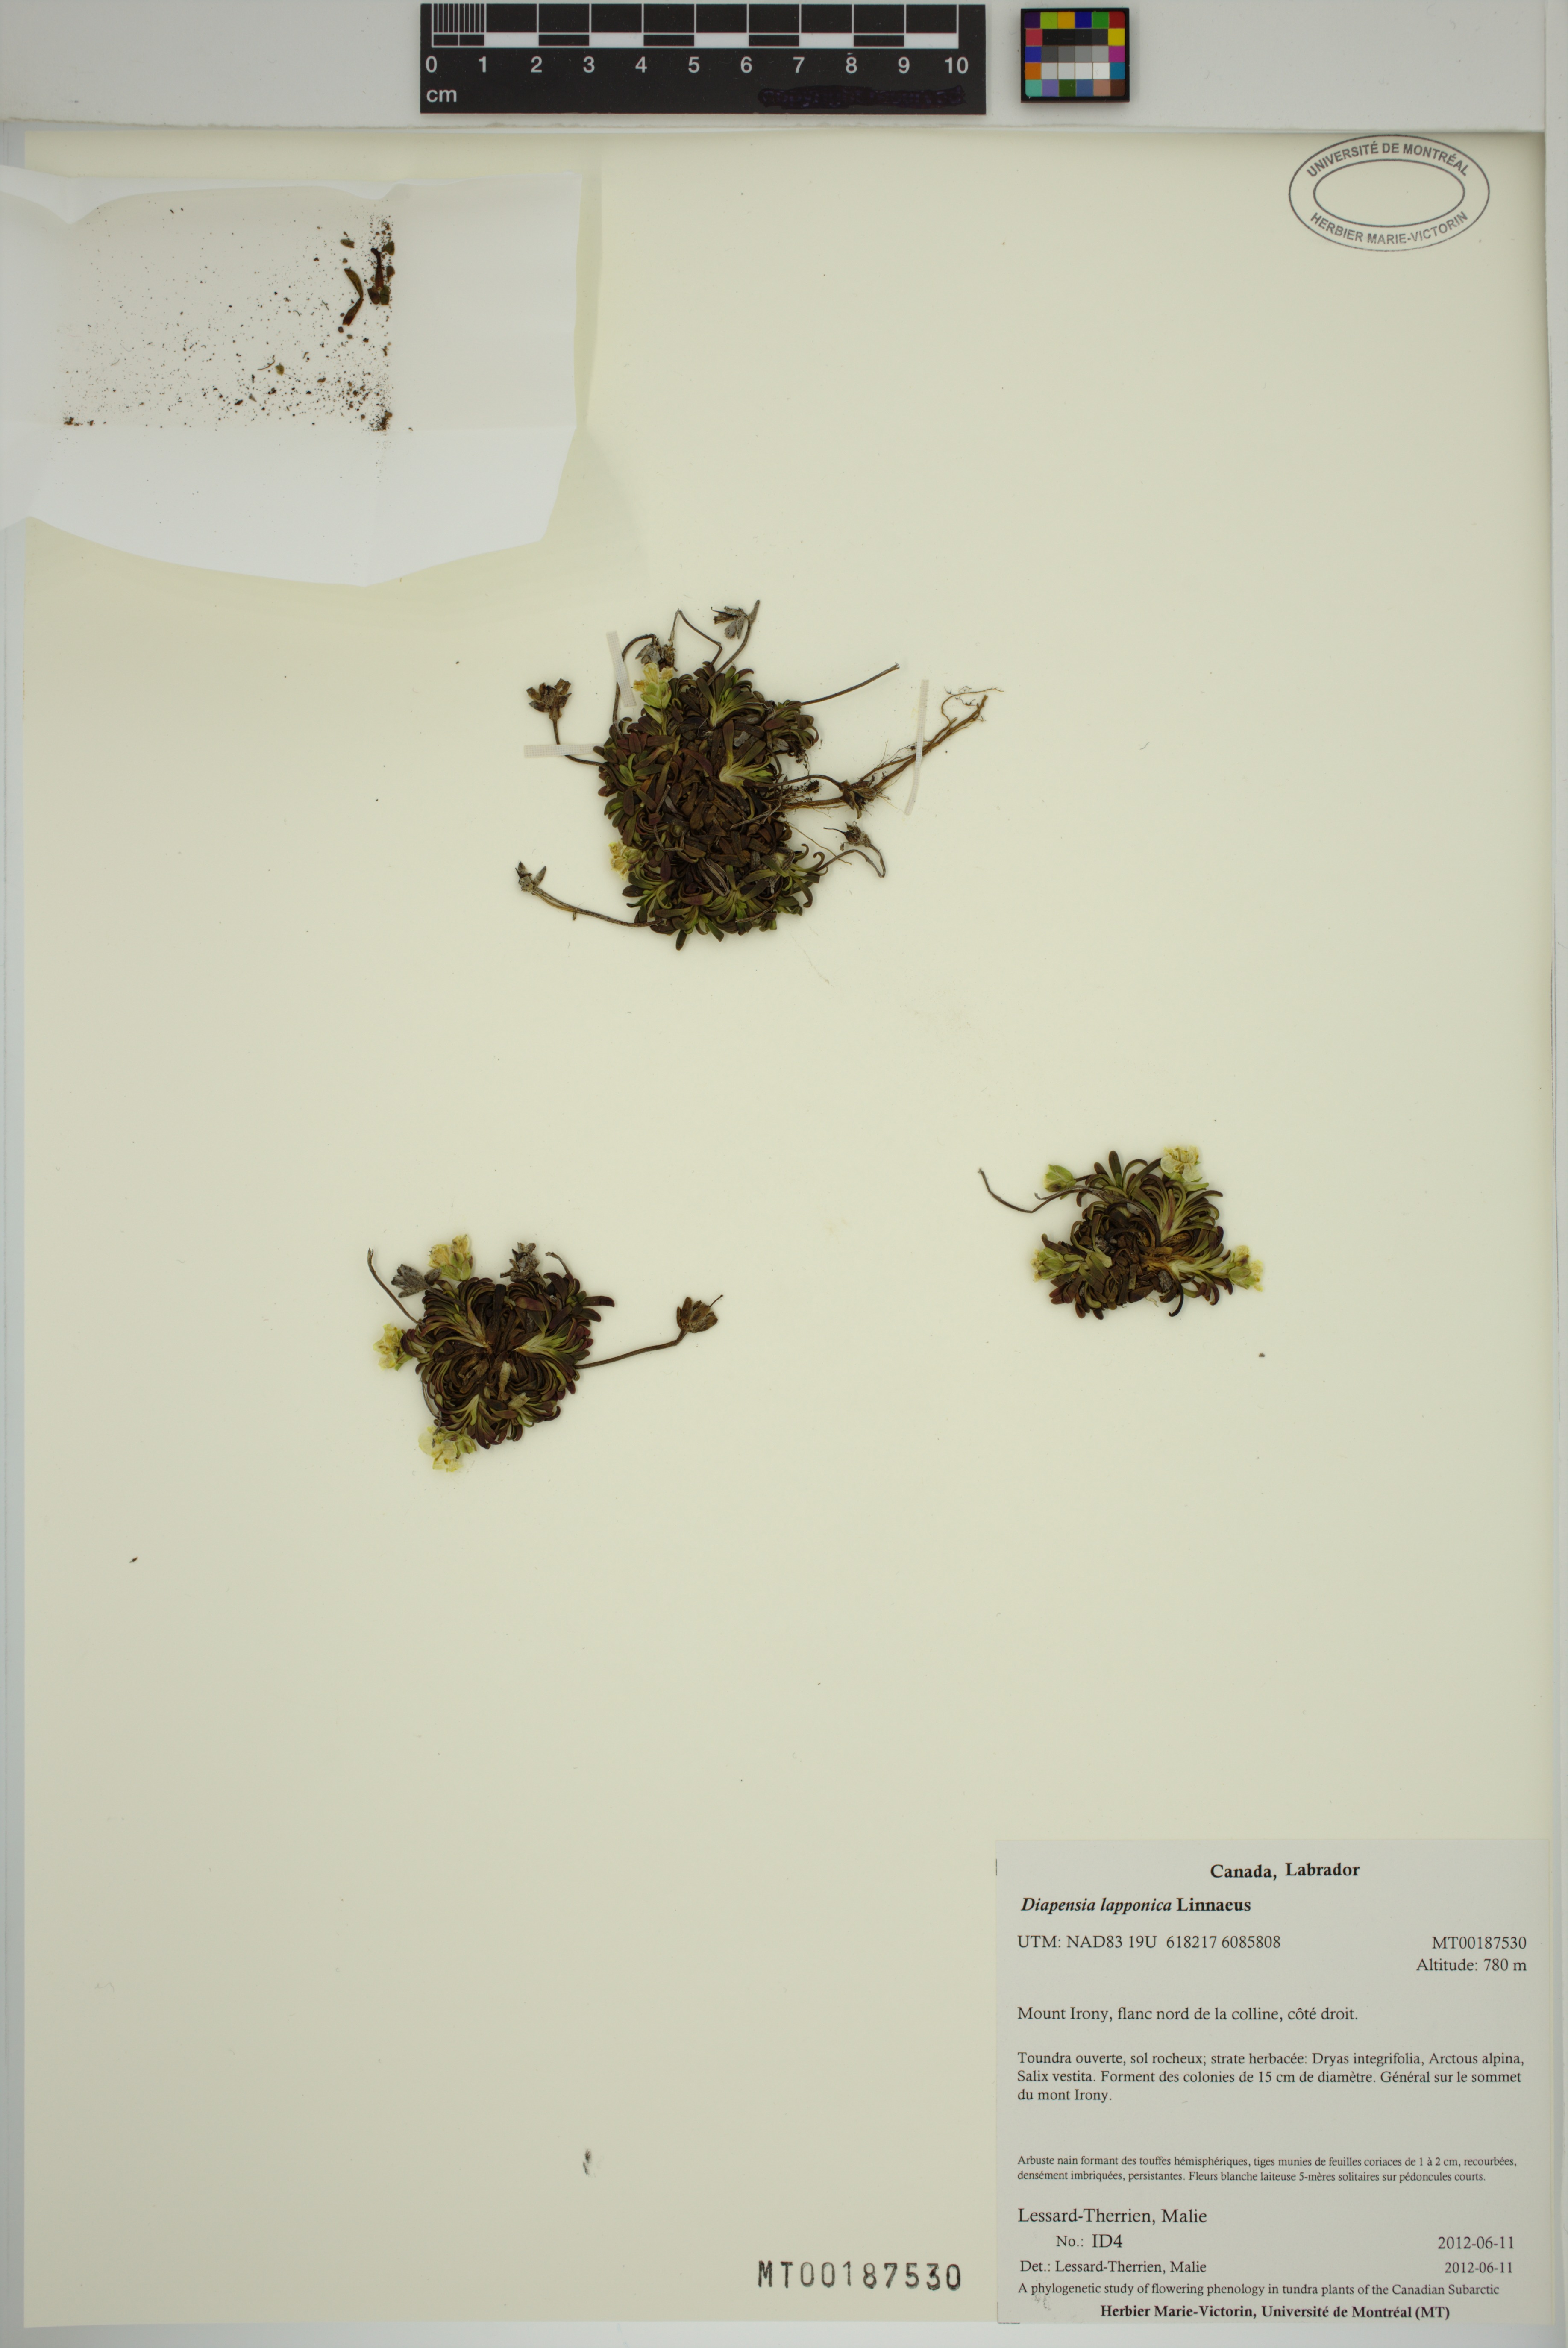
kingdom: Plantae
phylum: Tracheophyta
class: Magnoliopsida
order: Ericales
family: Diapensiaceae
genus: Diapensia
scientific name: Diapensia lapponica
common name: Diapensia
